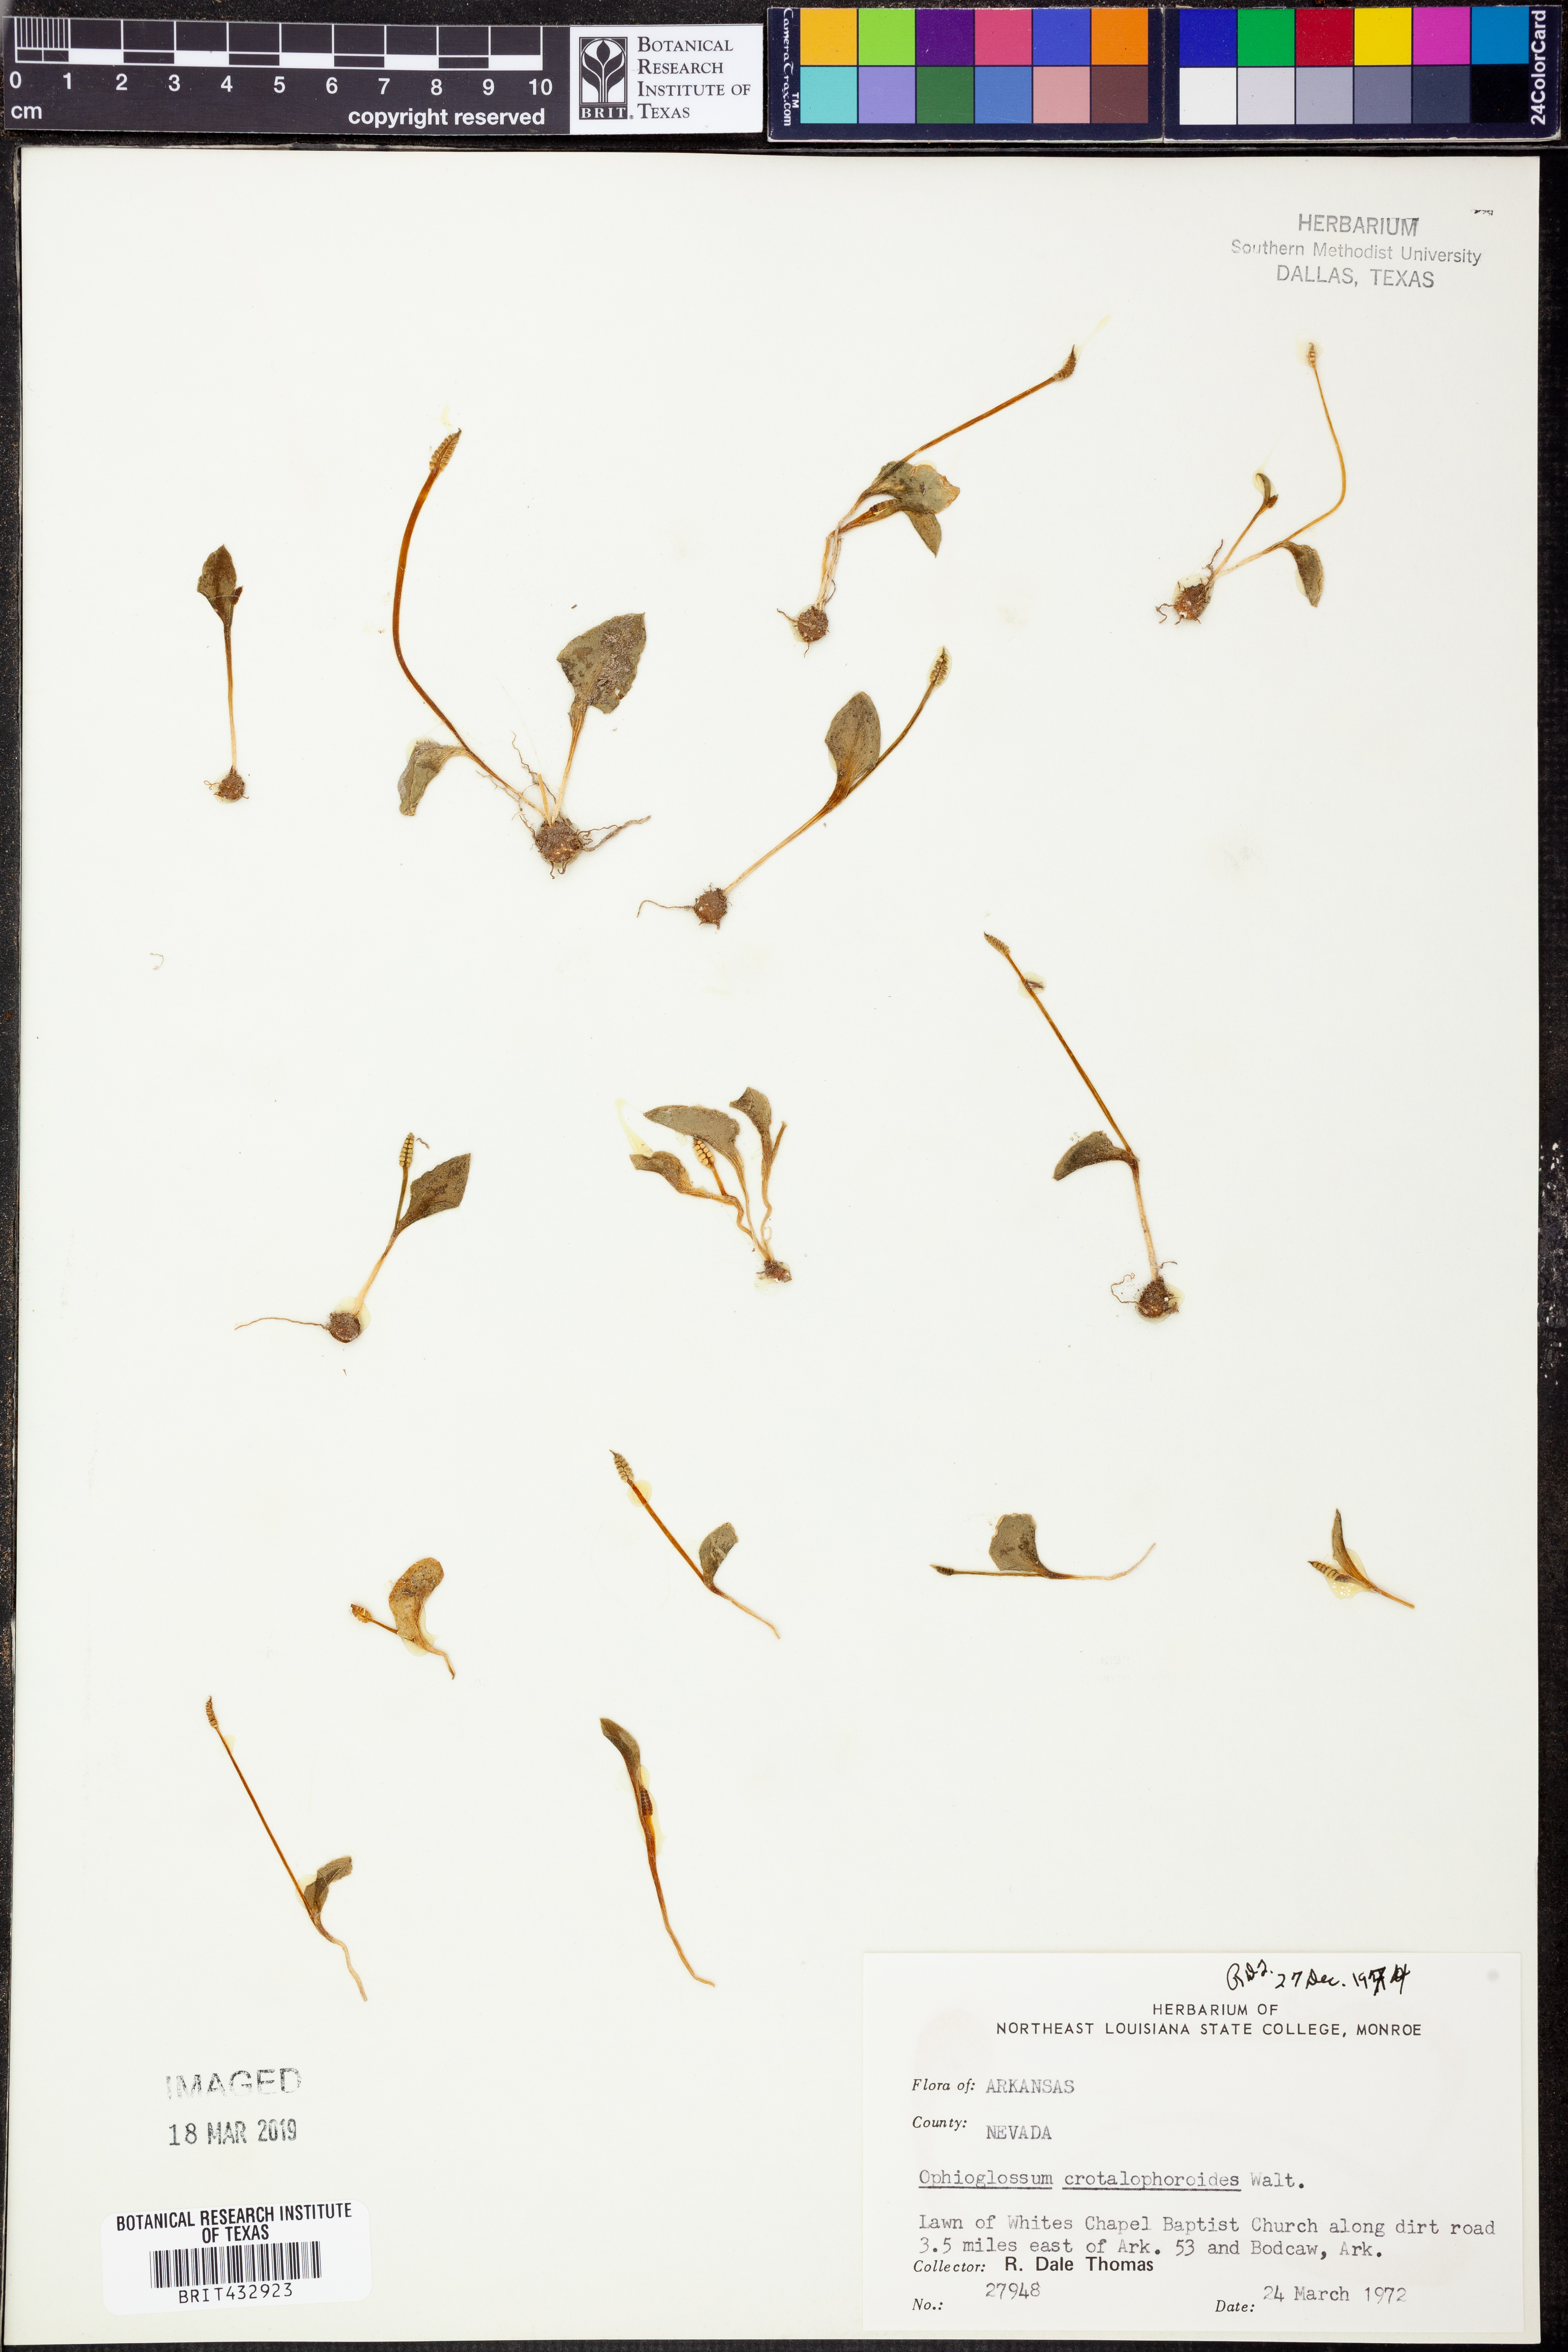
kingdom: Plantae
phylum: Tracheophyta
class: Polypodiopsida
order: Ophioglossales
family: Ophioglossaceae
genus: Ophioglossum
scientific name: Ophioglossum crotalophoroides
